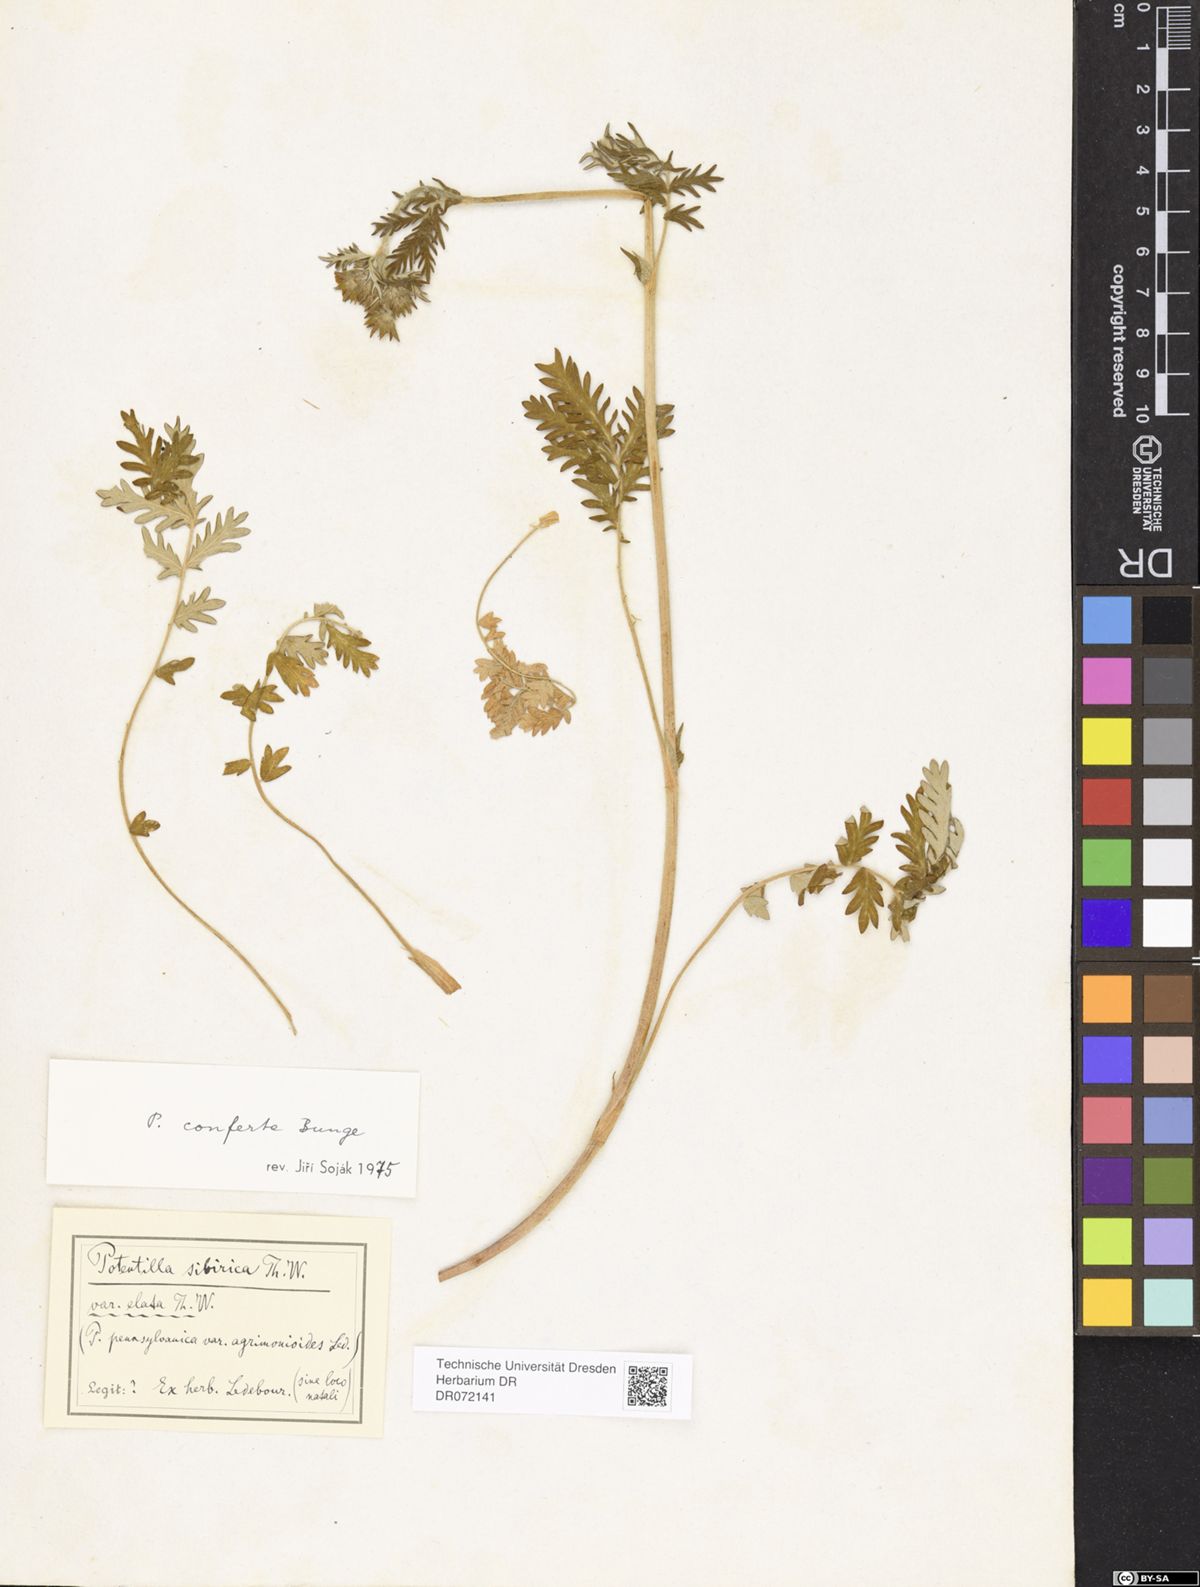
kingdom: Plantae
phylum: Tracheophyta
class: Magnoliopsida
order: Rosales
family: Rosaceae
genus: Potentilla
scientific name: Potentilla conferta
